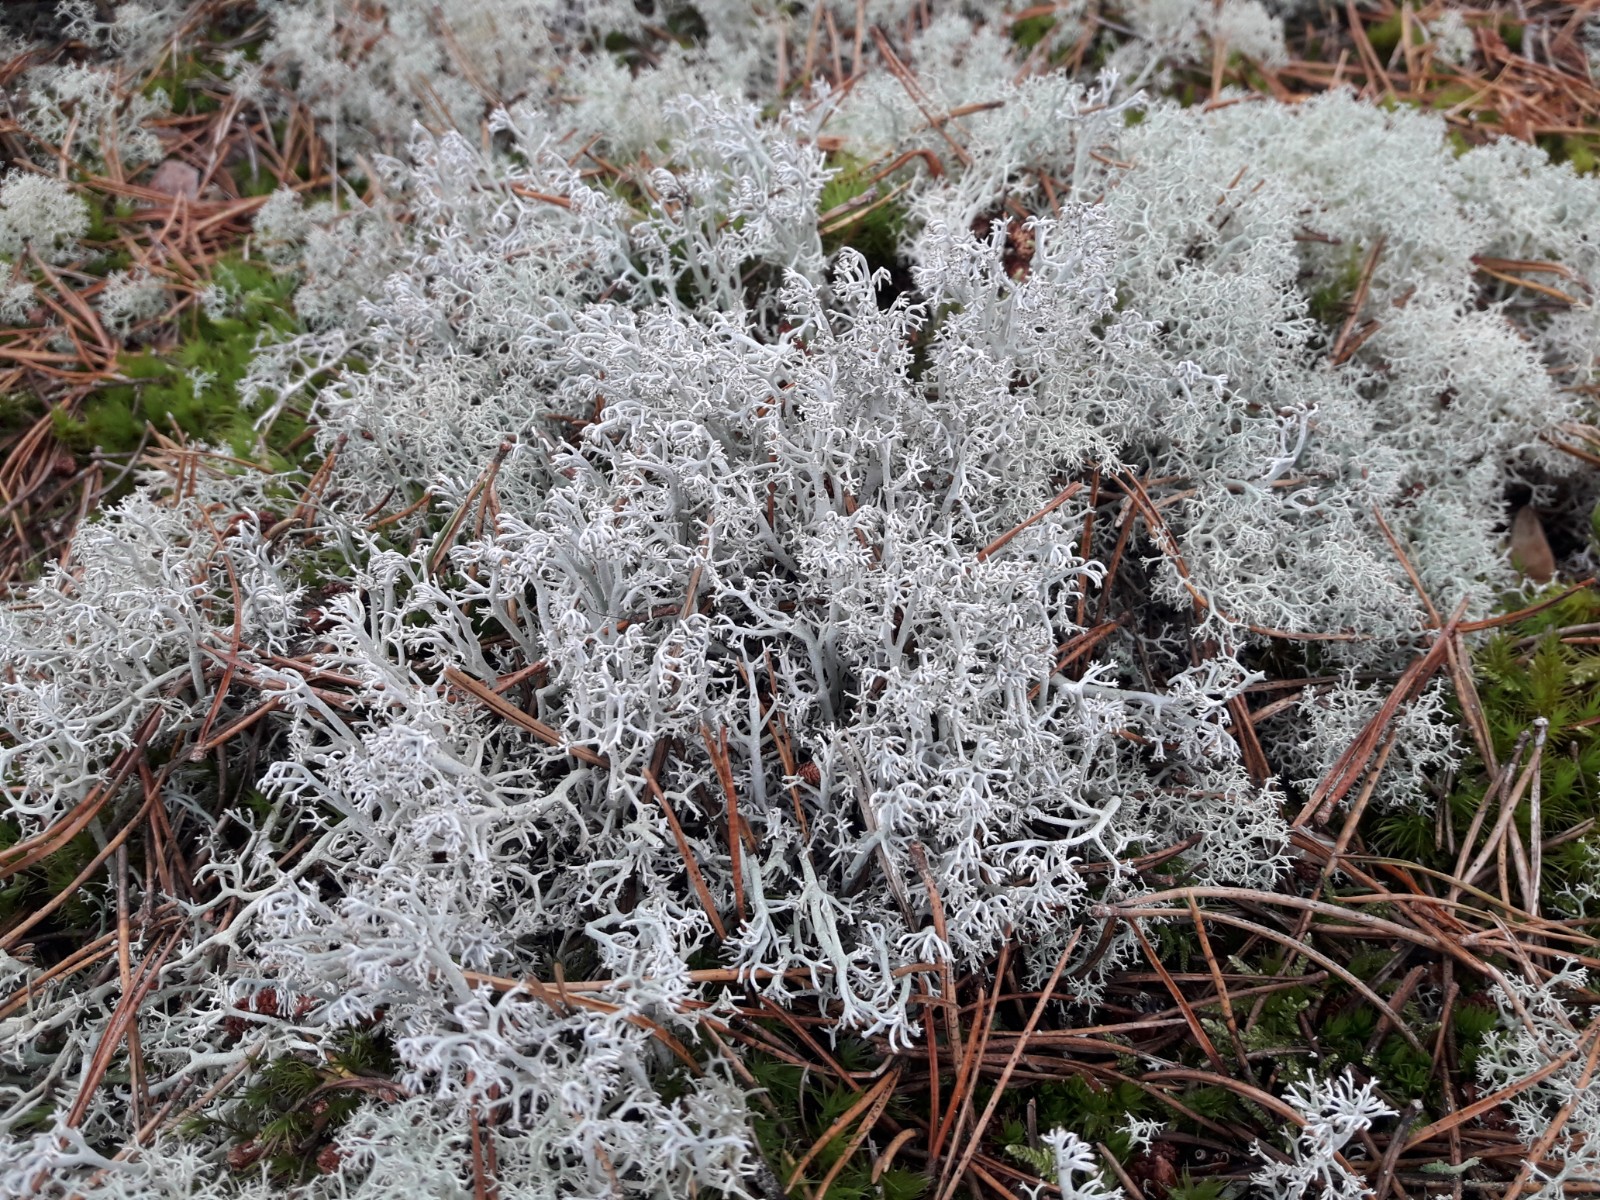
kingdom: Fungi
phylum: Ascomycota
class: Lecanoromycetes
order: Lecanorales
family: Cladoniaceae
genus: Cladonia
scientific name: Cladonia rangiferina
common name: askegrå rensdyrlav
